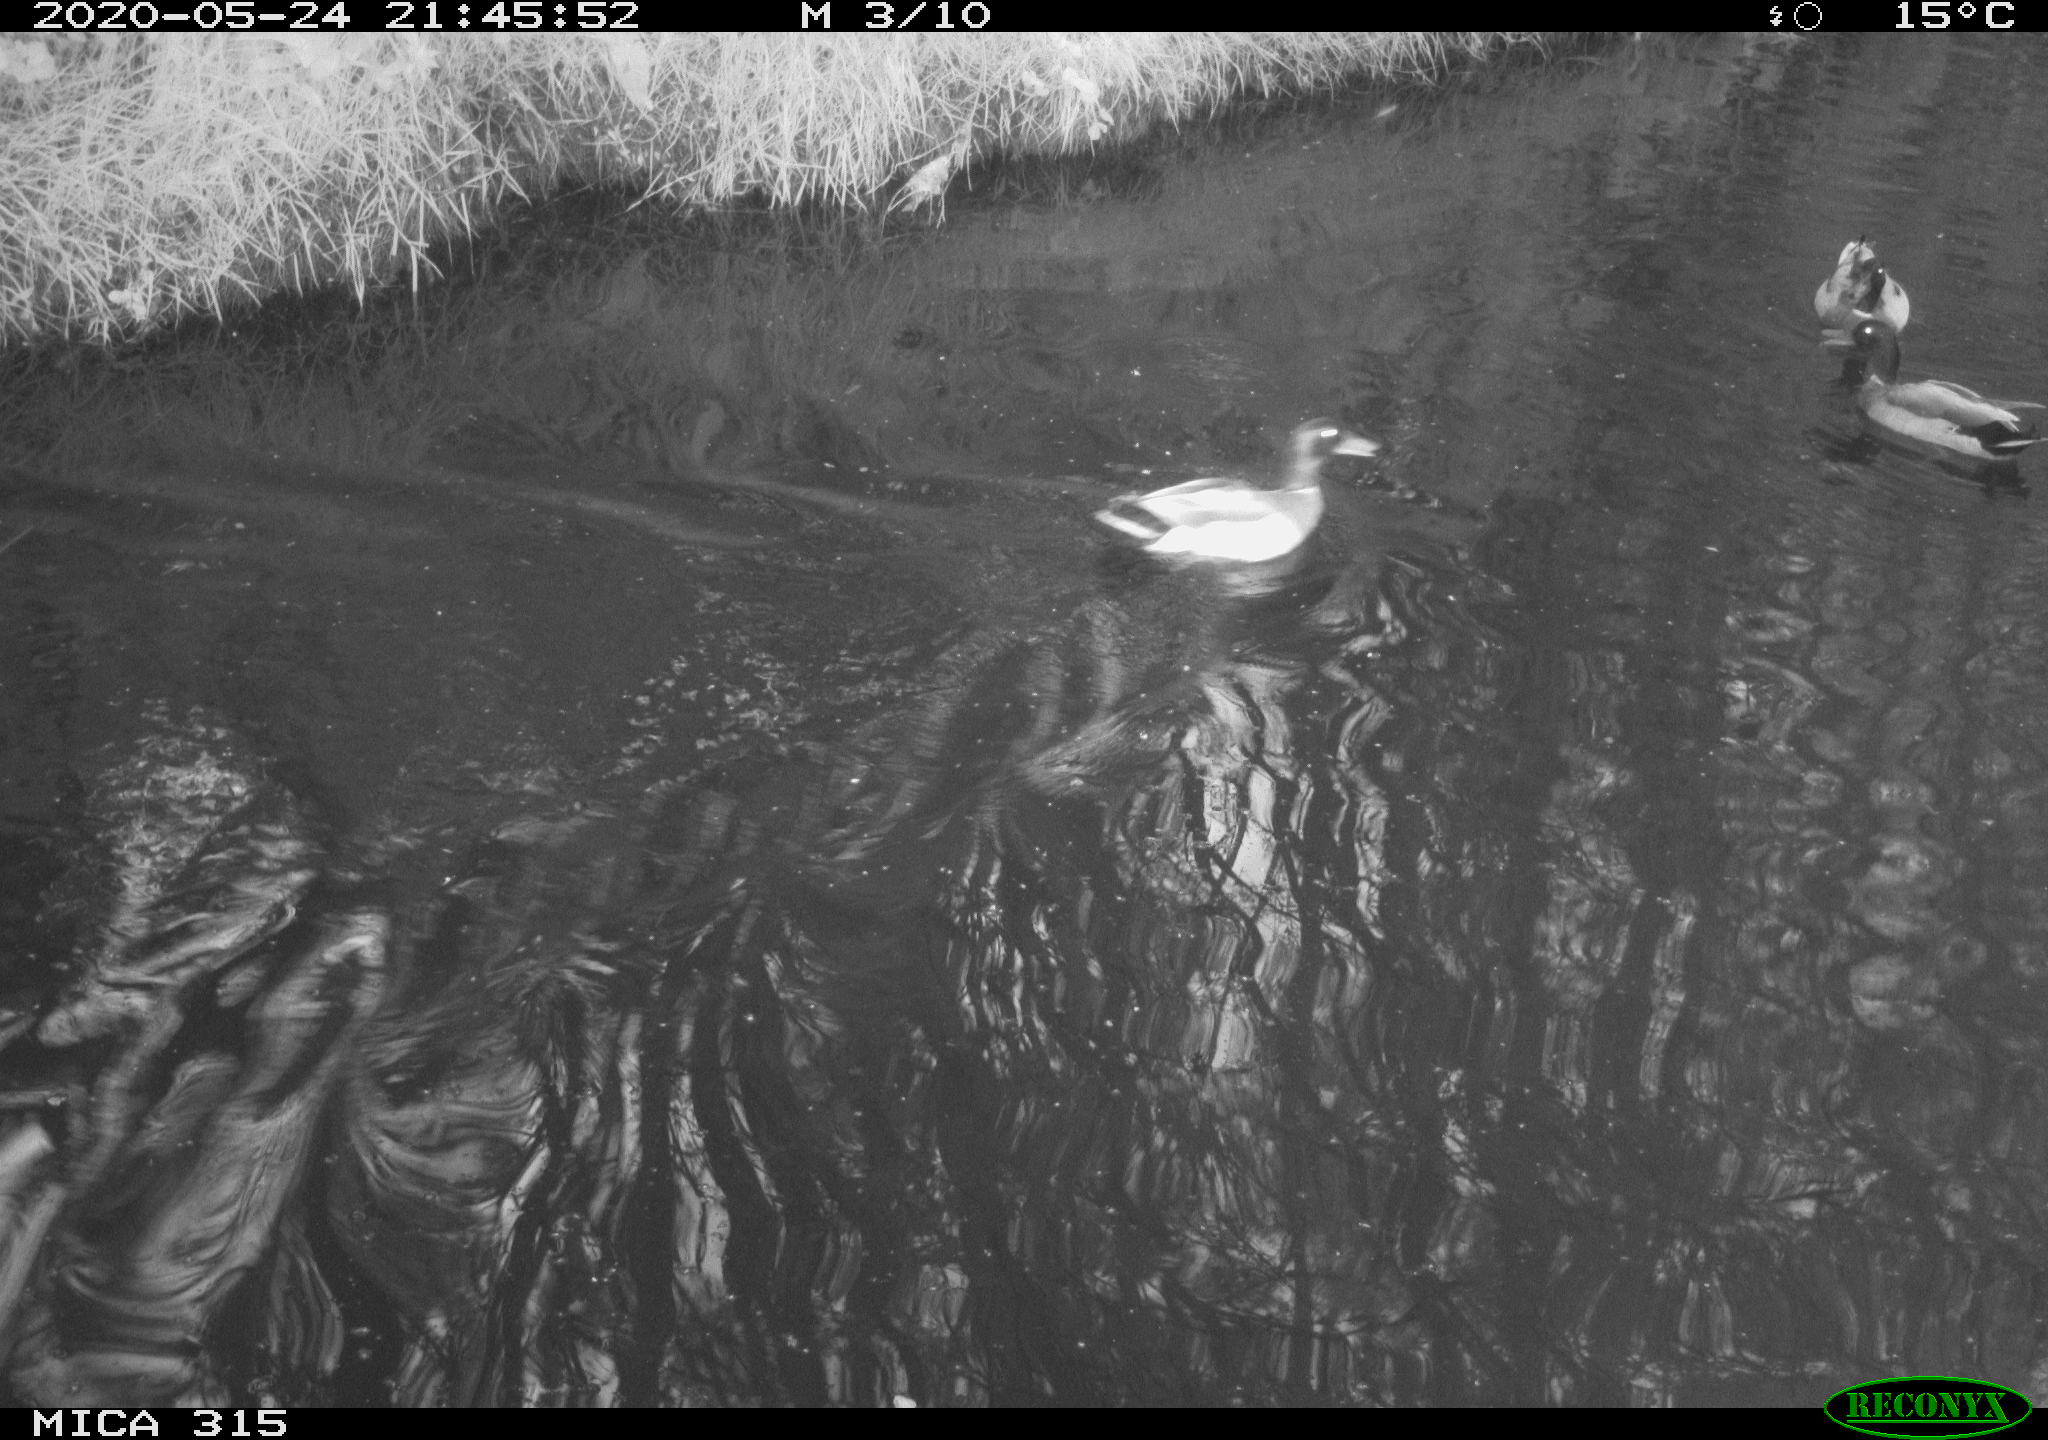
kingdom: Animalia
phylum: Chordata
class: Aves
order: Anseriformes
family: Anatidae
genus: Anas
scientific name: Anas platyrhynchos
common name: Mallard
